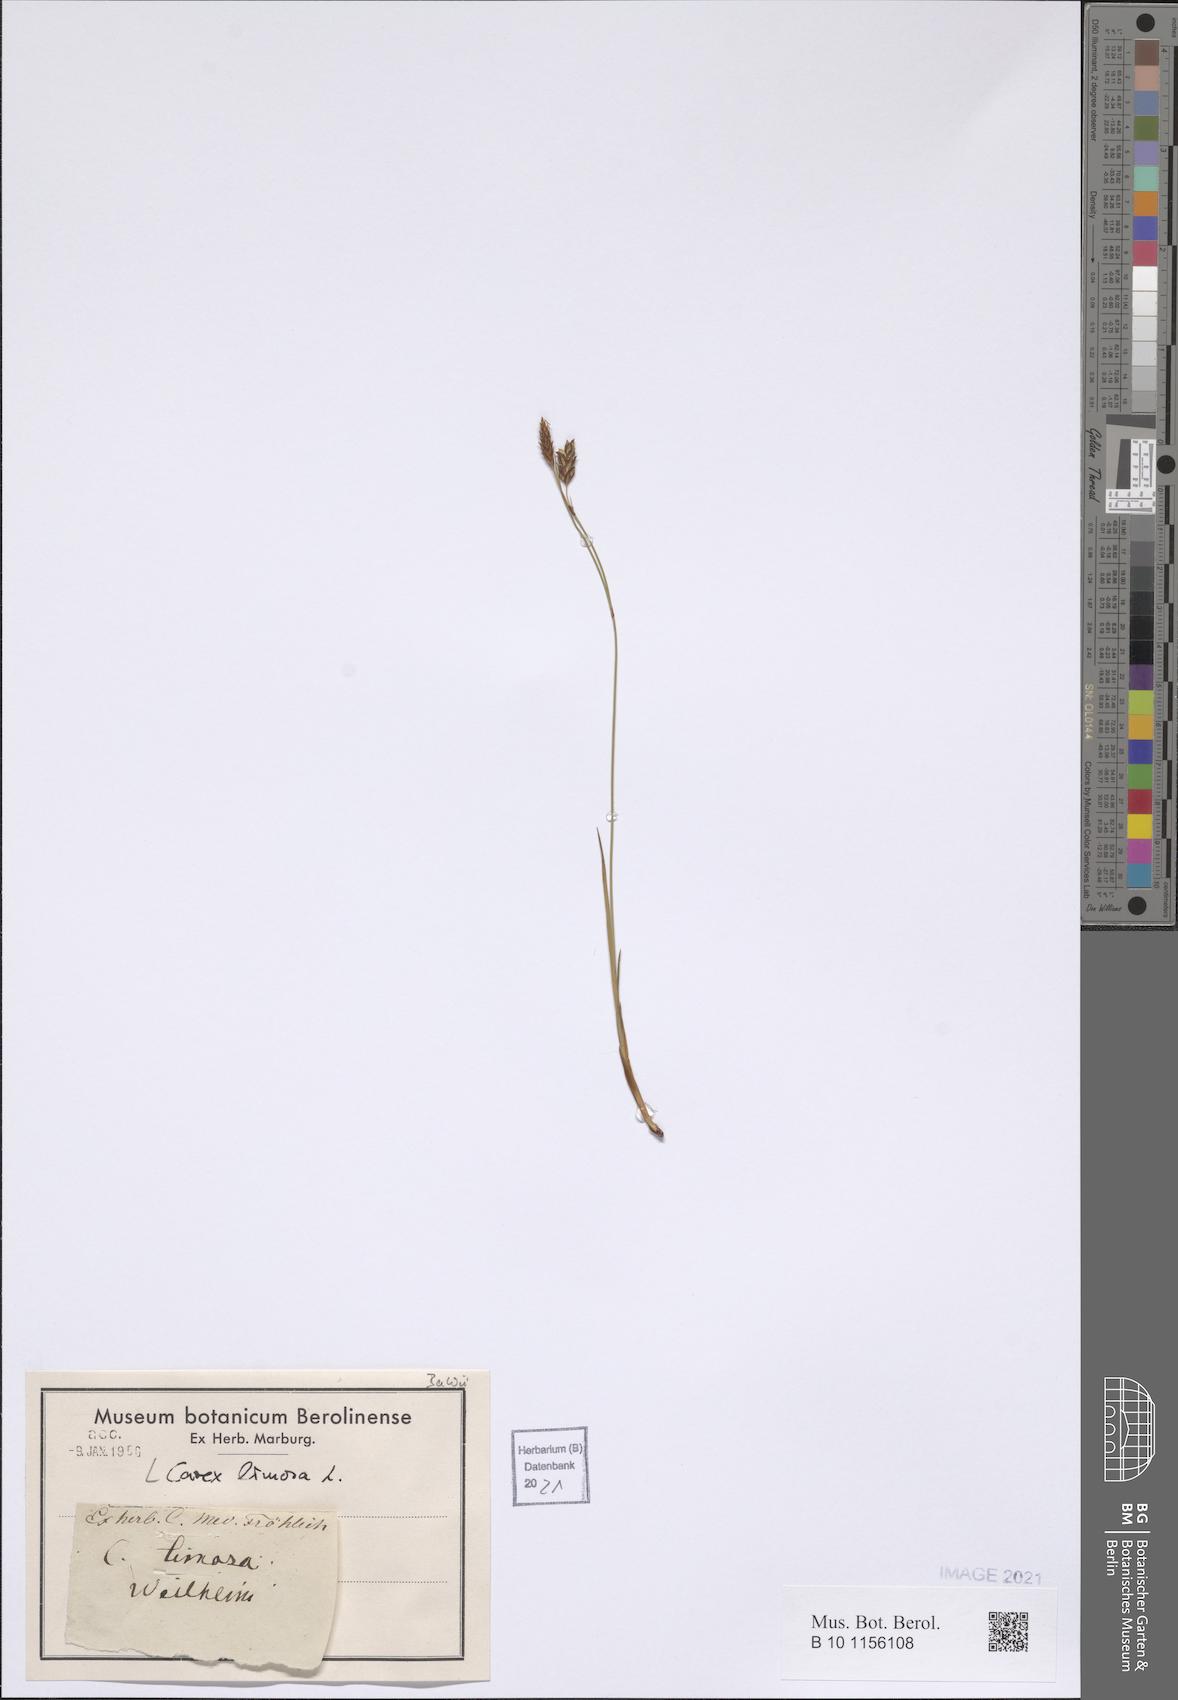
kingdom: Plantae
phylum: Tracheophyta
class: Liliopsida
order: Poales
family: Cyperaceae
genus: Carex
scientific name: Carex limosa
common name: Bog sedge
